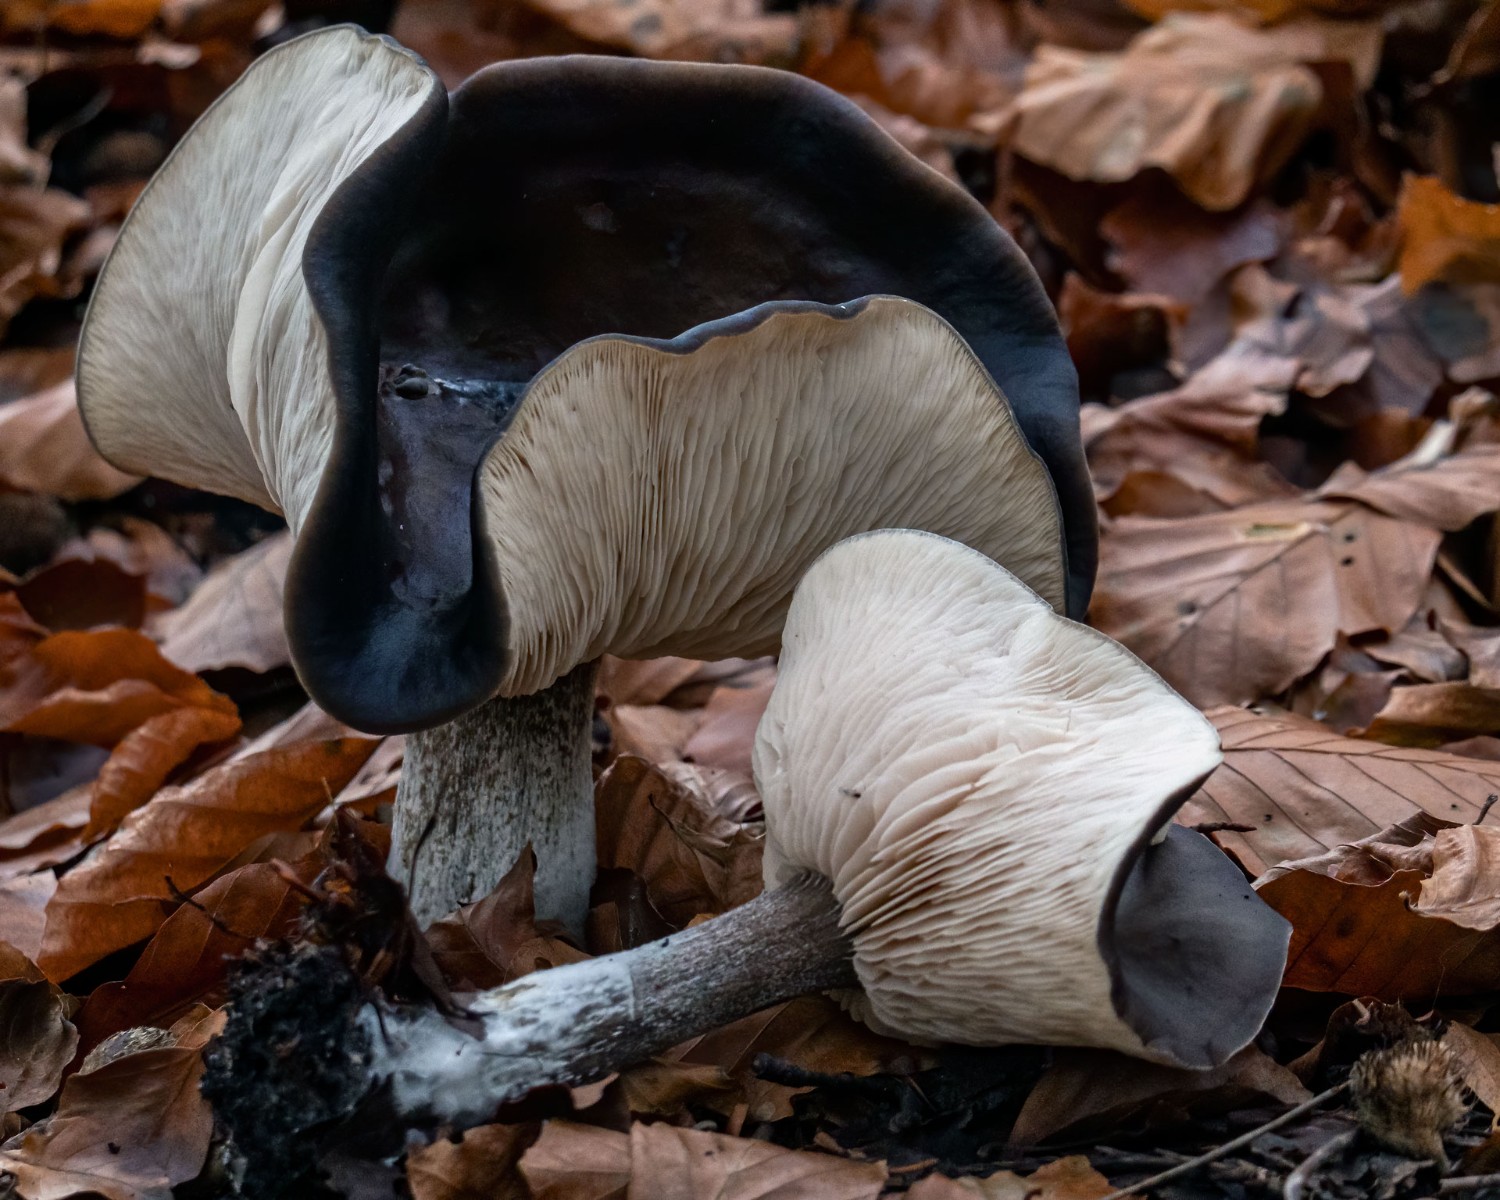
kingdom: Fungi
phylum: Basidiomycota
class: Agaricomycetes
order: Agaricales
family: Tricholomataceae
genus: Melanoleuca
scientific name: Melanoleuca
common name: munkehat
